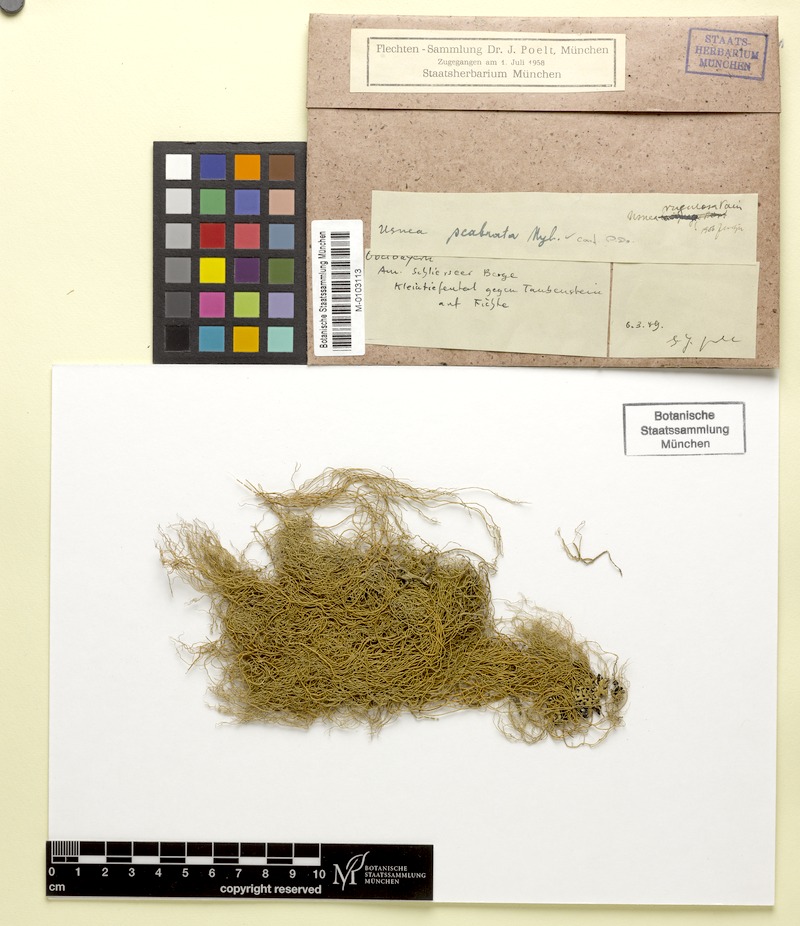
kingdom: Fungi
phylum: Ascomycota
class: Lecanoromycetes
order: Lecanorales
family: Parmeliaceae
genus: Usnea
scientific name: Usnea scabrata
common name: Straw beard lichen
